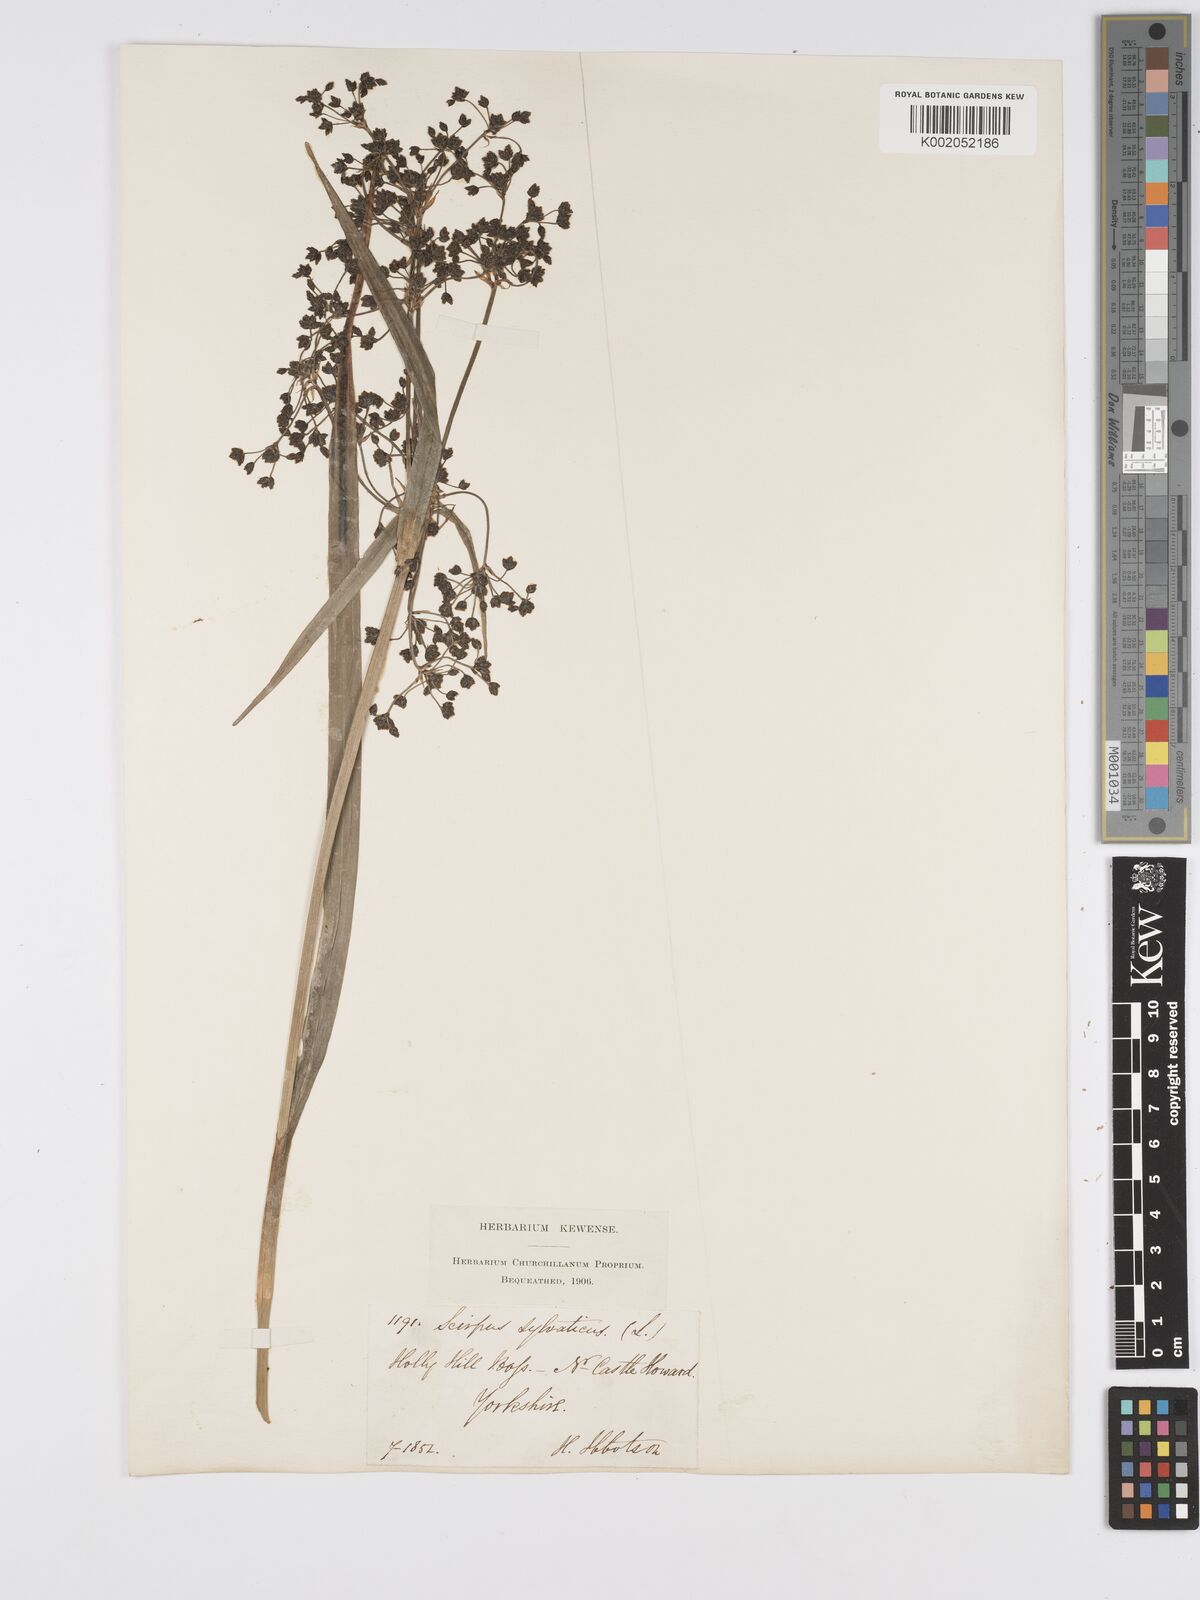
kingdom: Plantae
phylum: Tracheophyta
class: Liliopsida
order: Poales
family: Cyperaceae
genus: Scirpus
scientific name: Scirpus sylvaticus
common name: Wood club-rush
